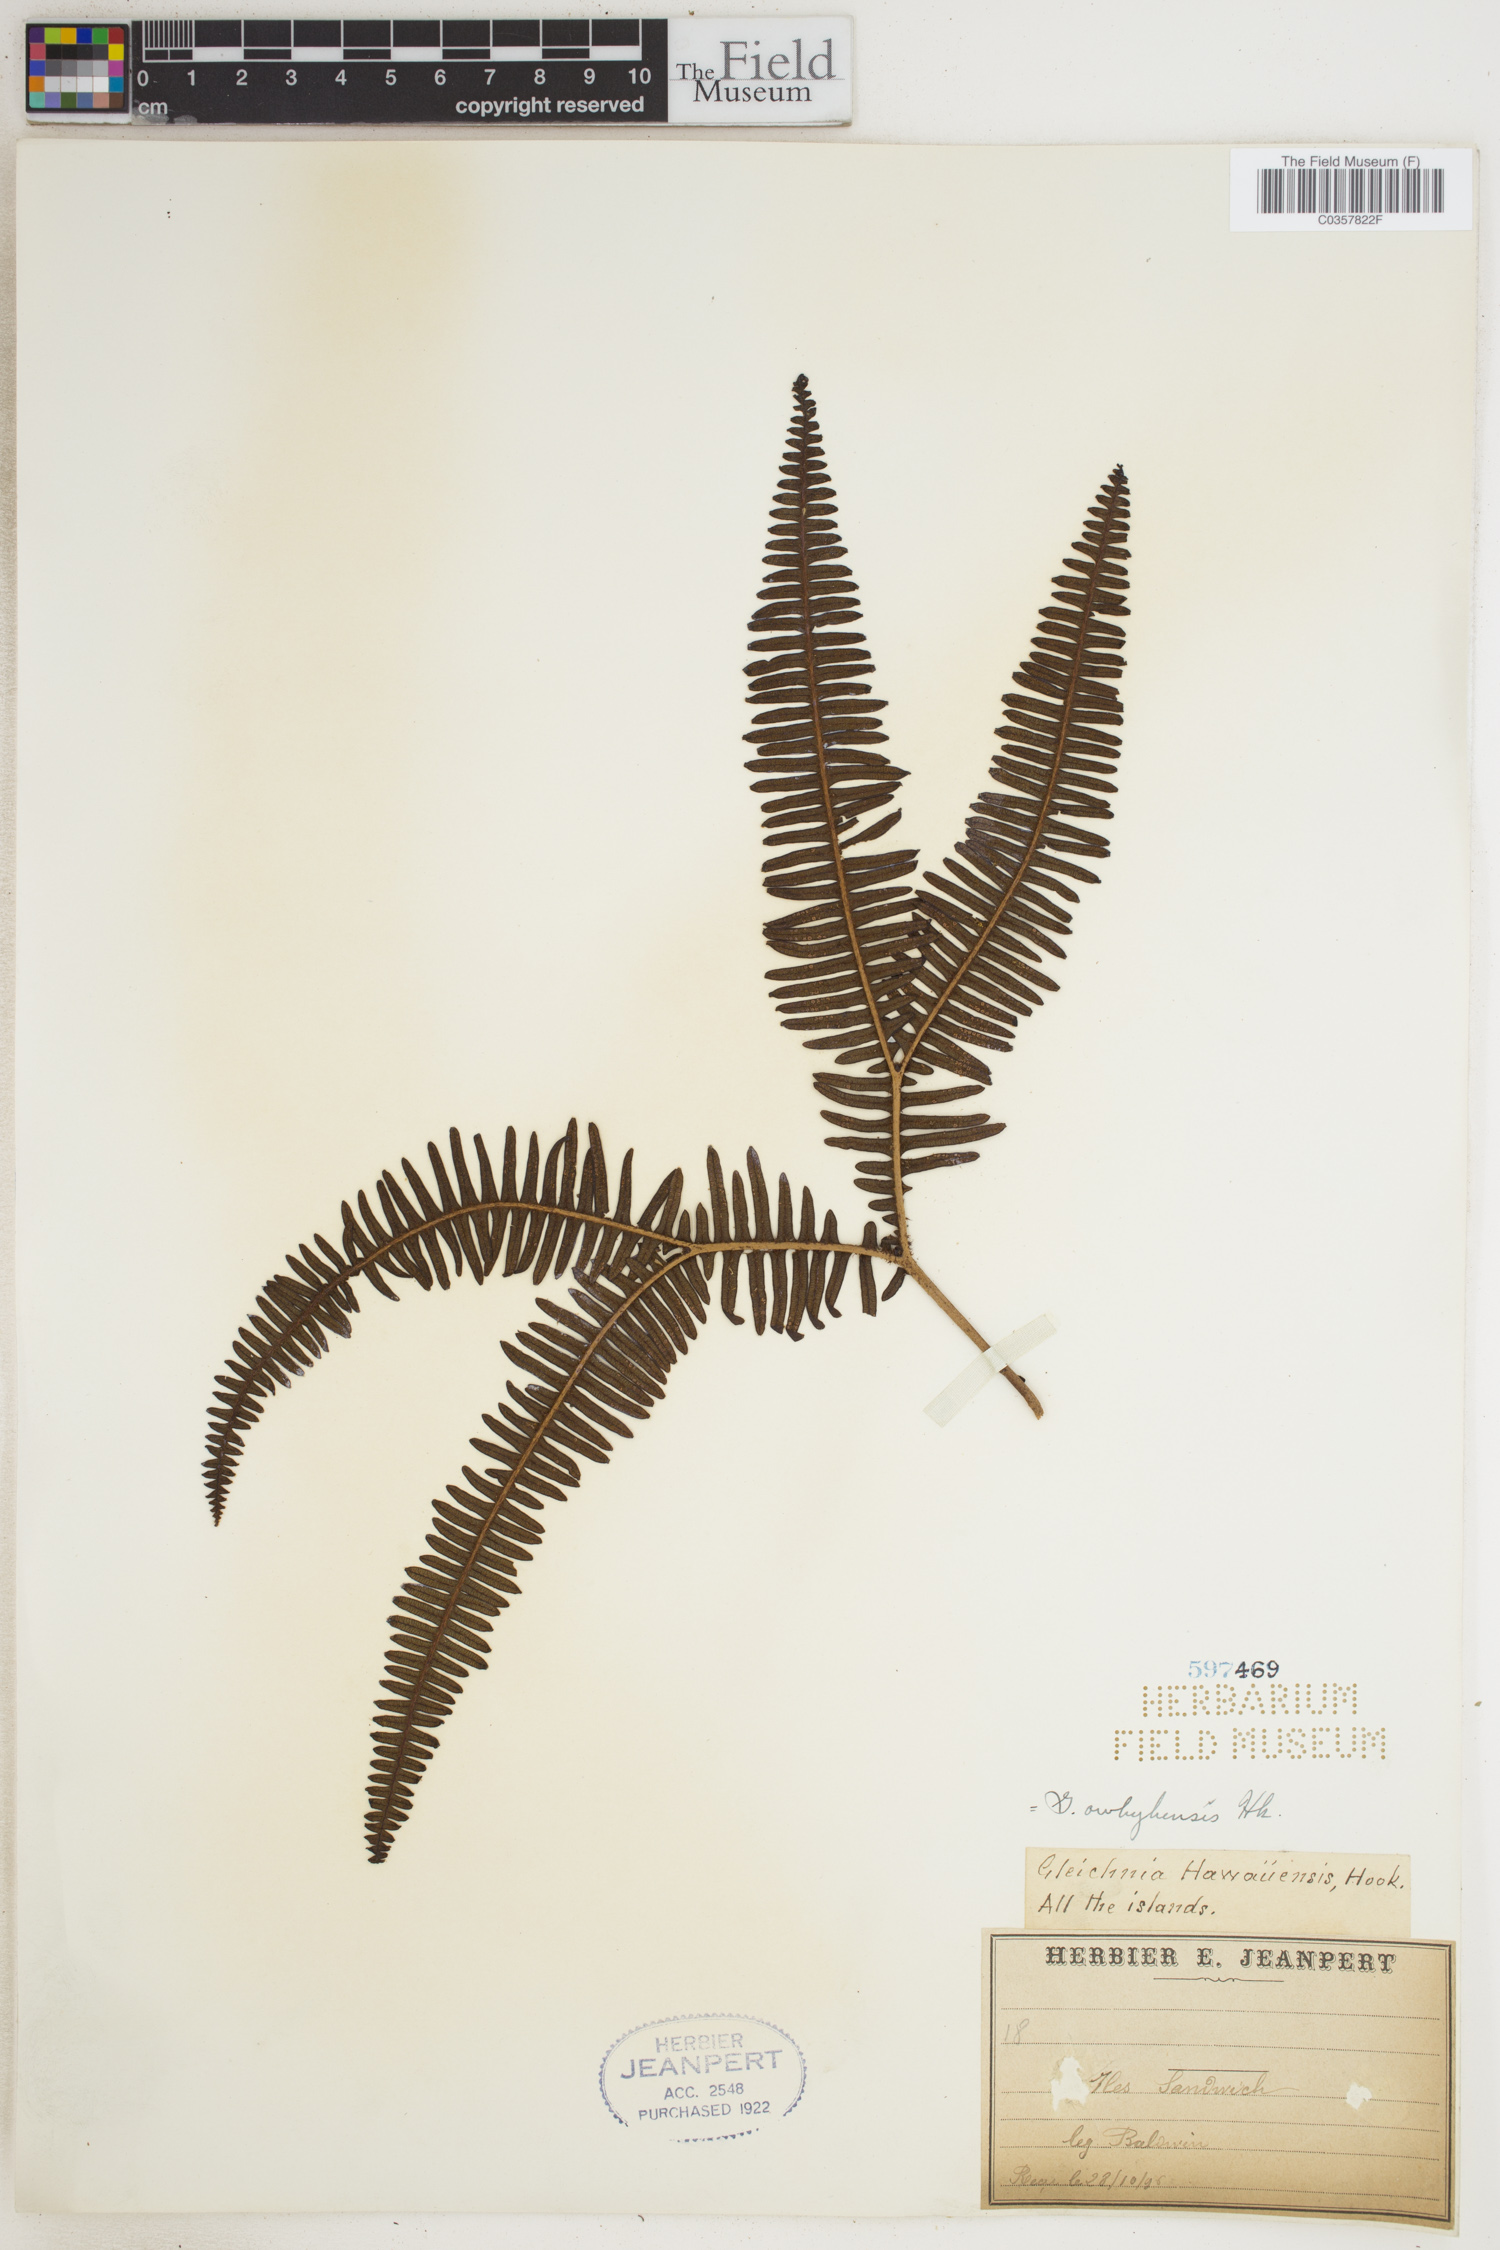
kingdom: Plantae
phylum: Tracheophyta
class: Polypodiopsida
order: Gleicheniales
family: Gleicheniaceae
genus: Sticherus
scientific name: Sticherus owhyhensis
